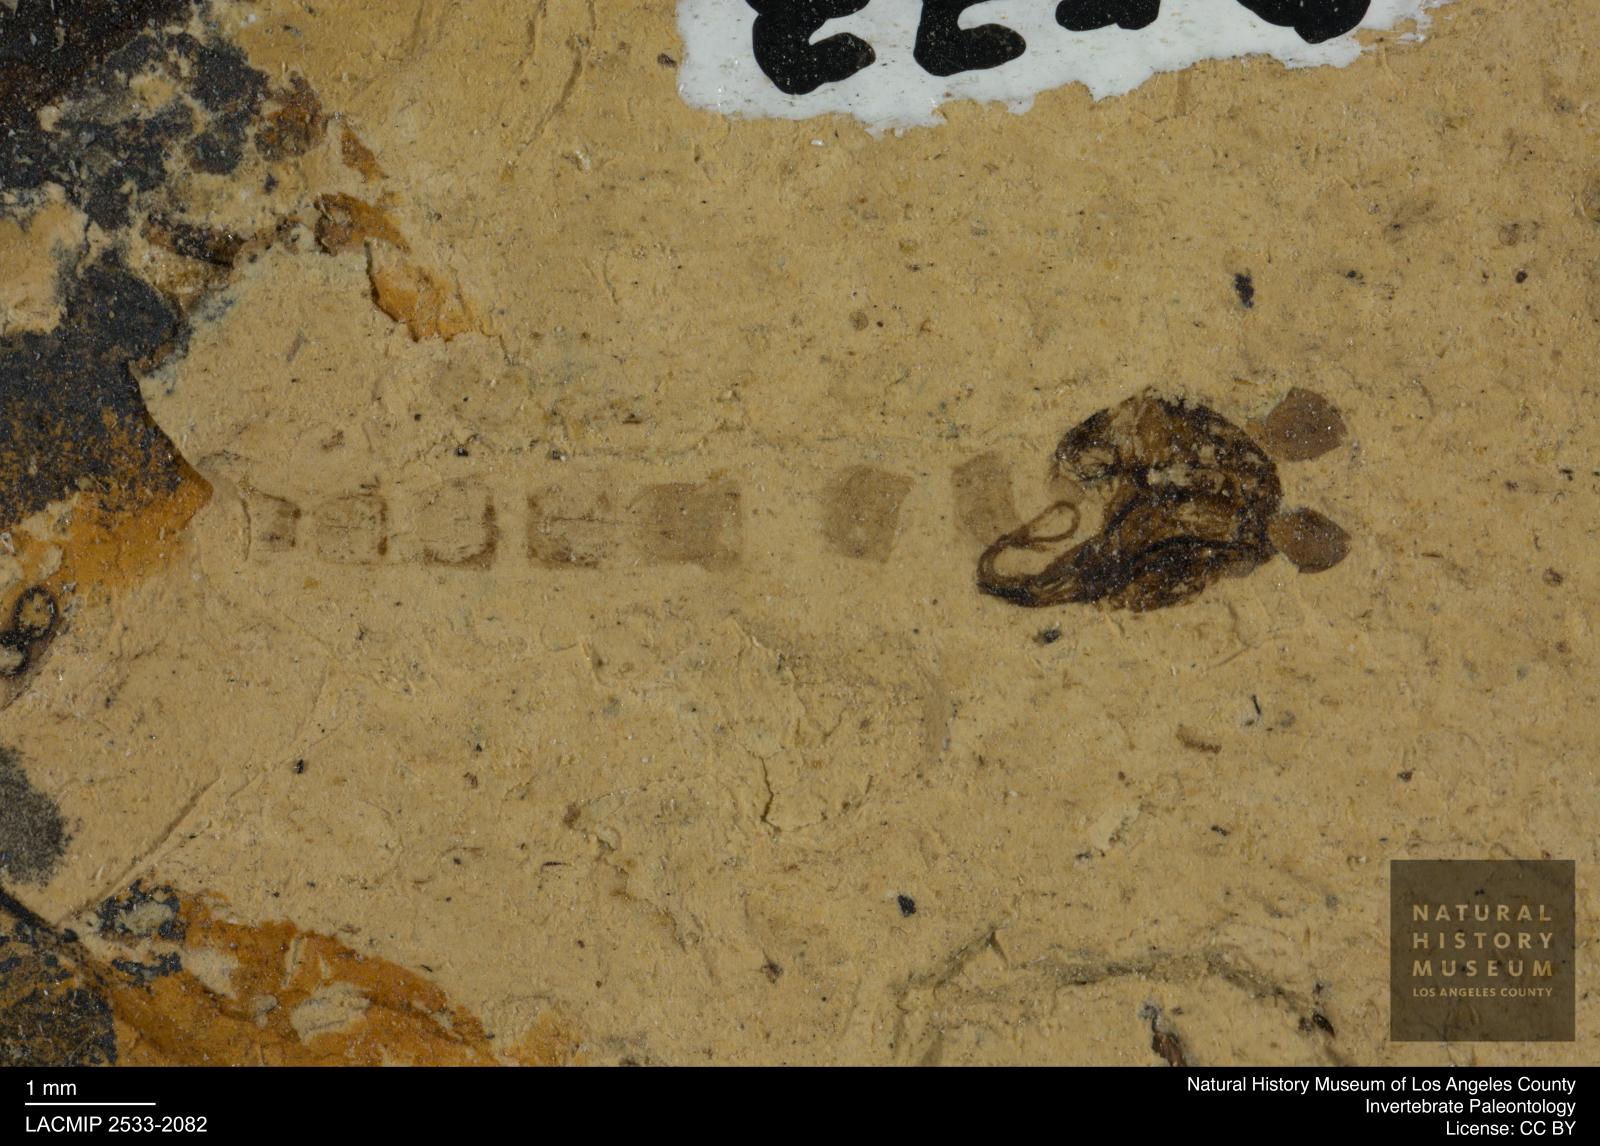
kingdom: Animalia
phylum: Arthropoda
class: Insecta
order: Diptera
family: Chironomidae
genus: Pelopiina
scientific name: Pelopiina
